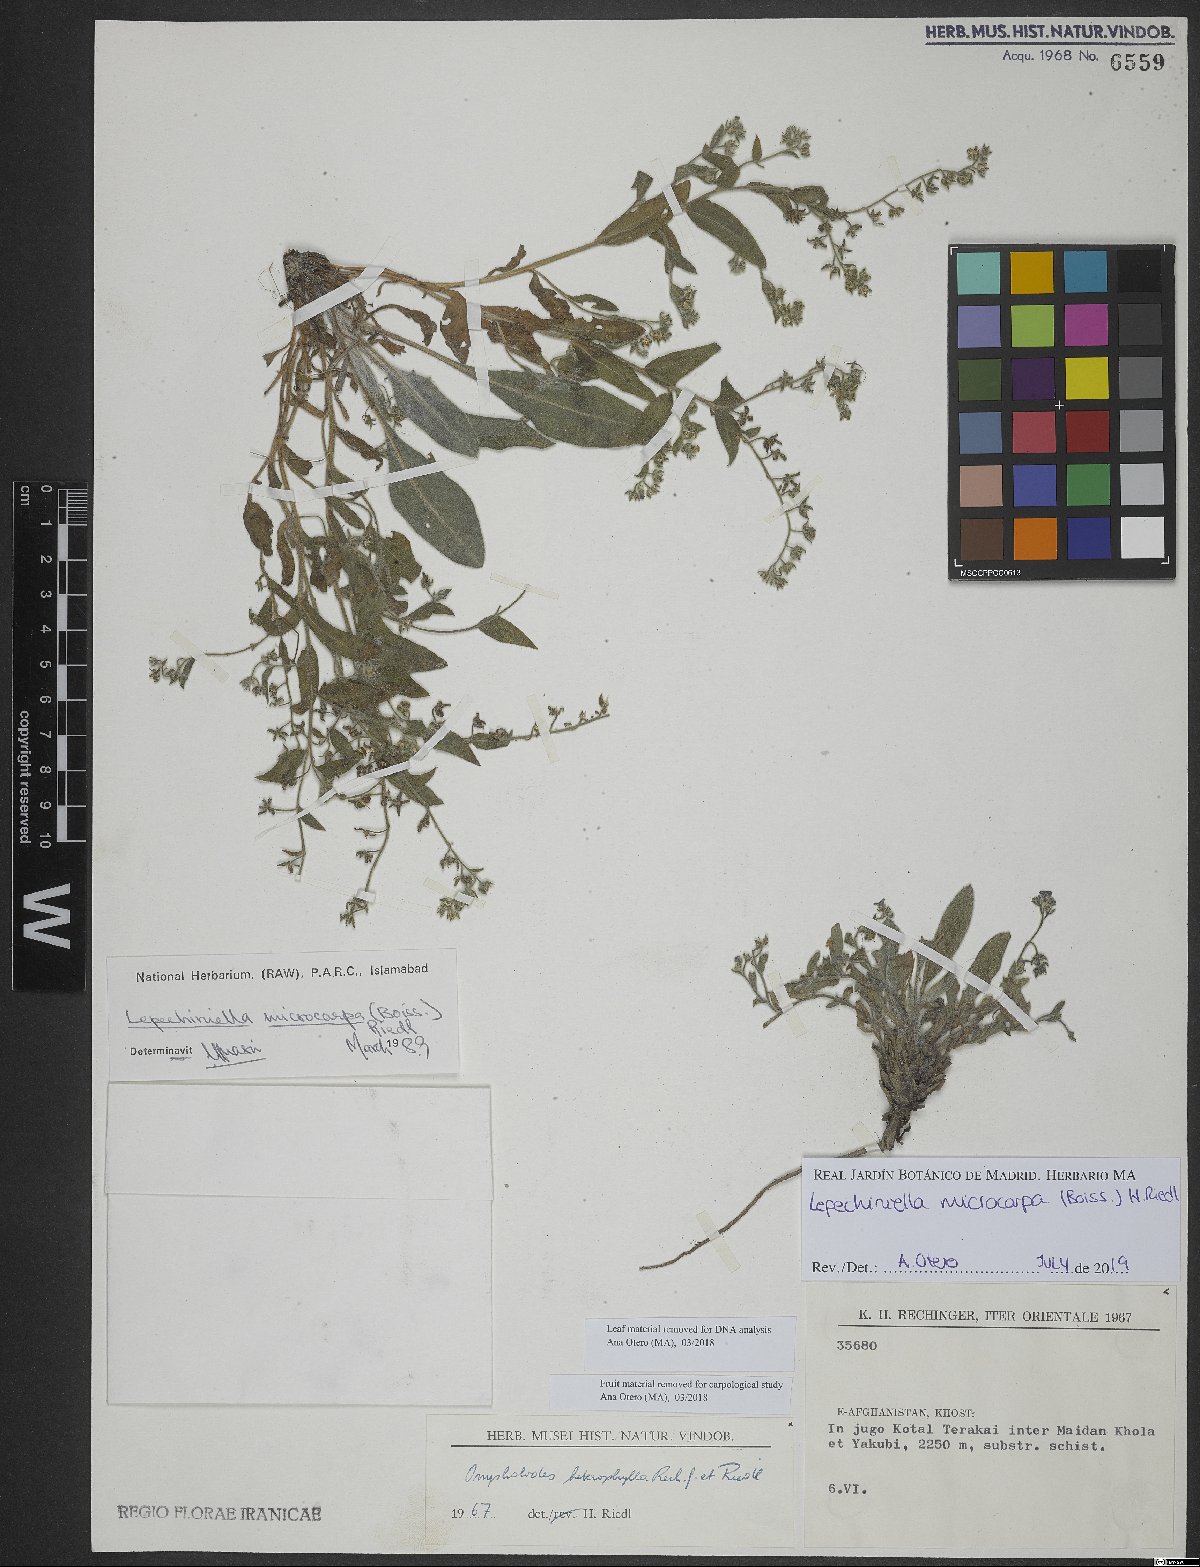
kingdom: Plantae
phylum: Tracheophyta
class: Magnoliopsida
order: Boraginales
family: Boraginaceae
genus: Lepechiniella
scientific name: Lepechiniella microcarpa
